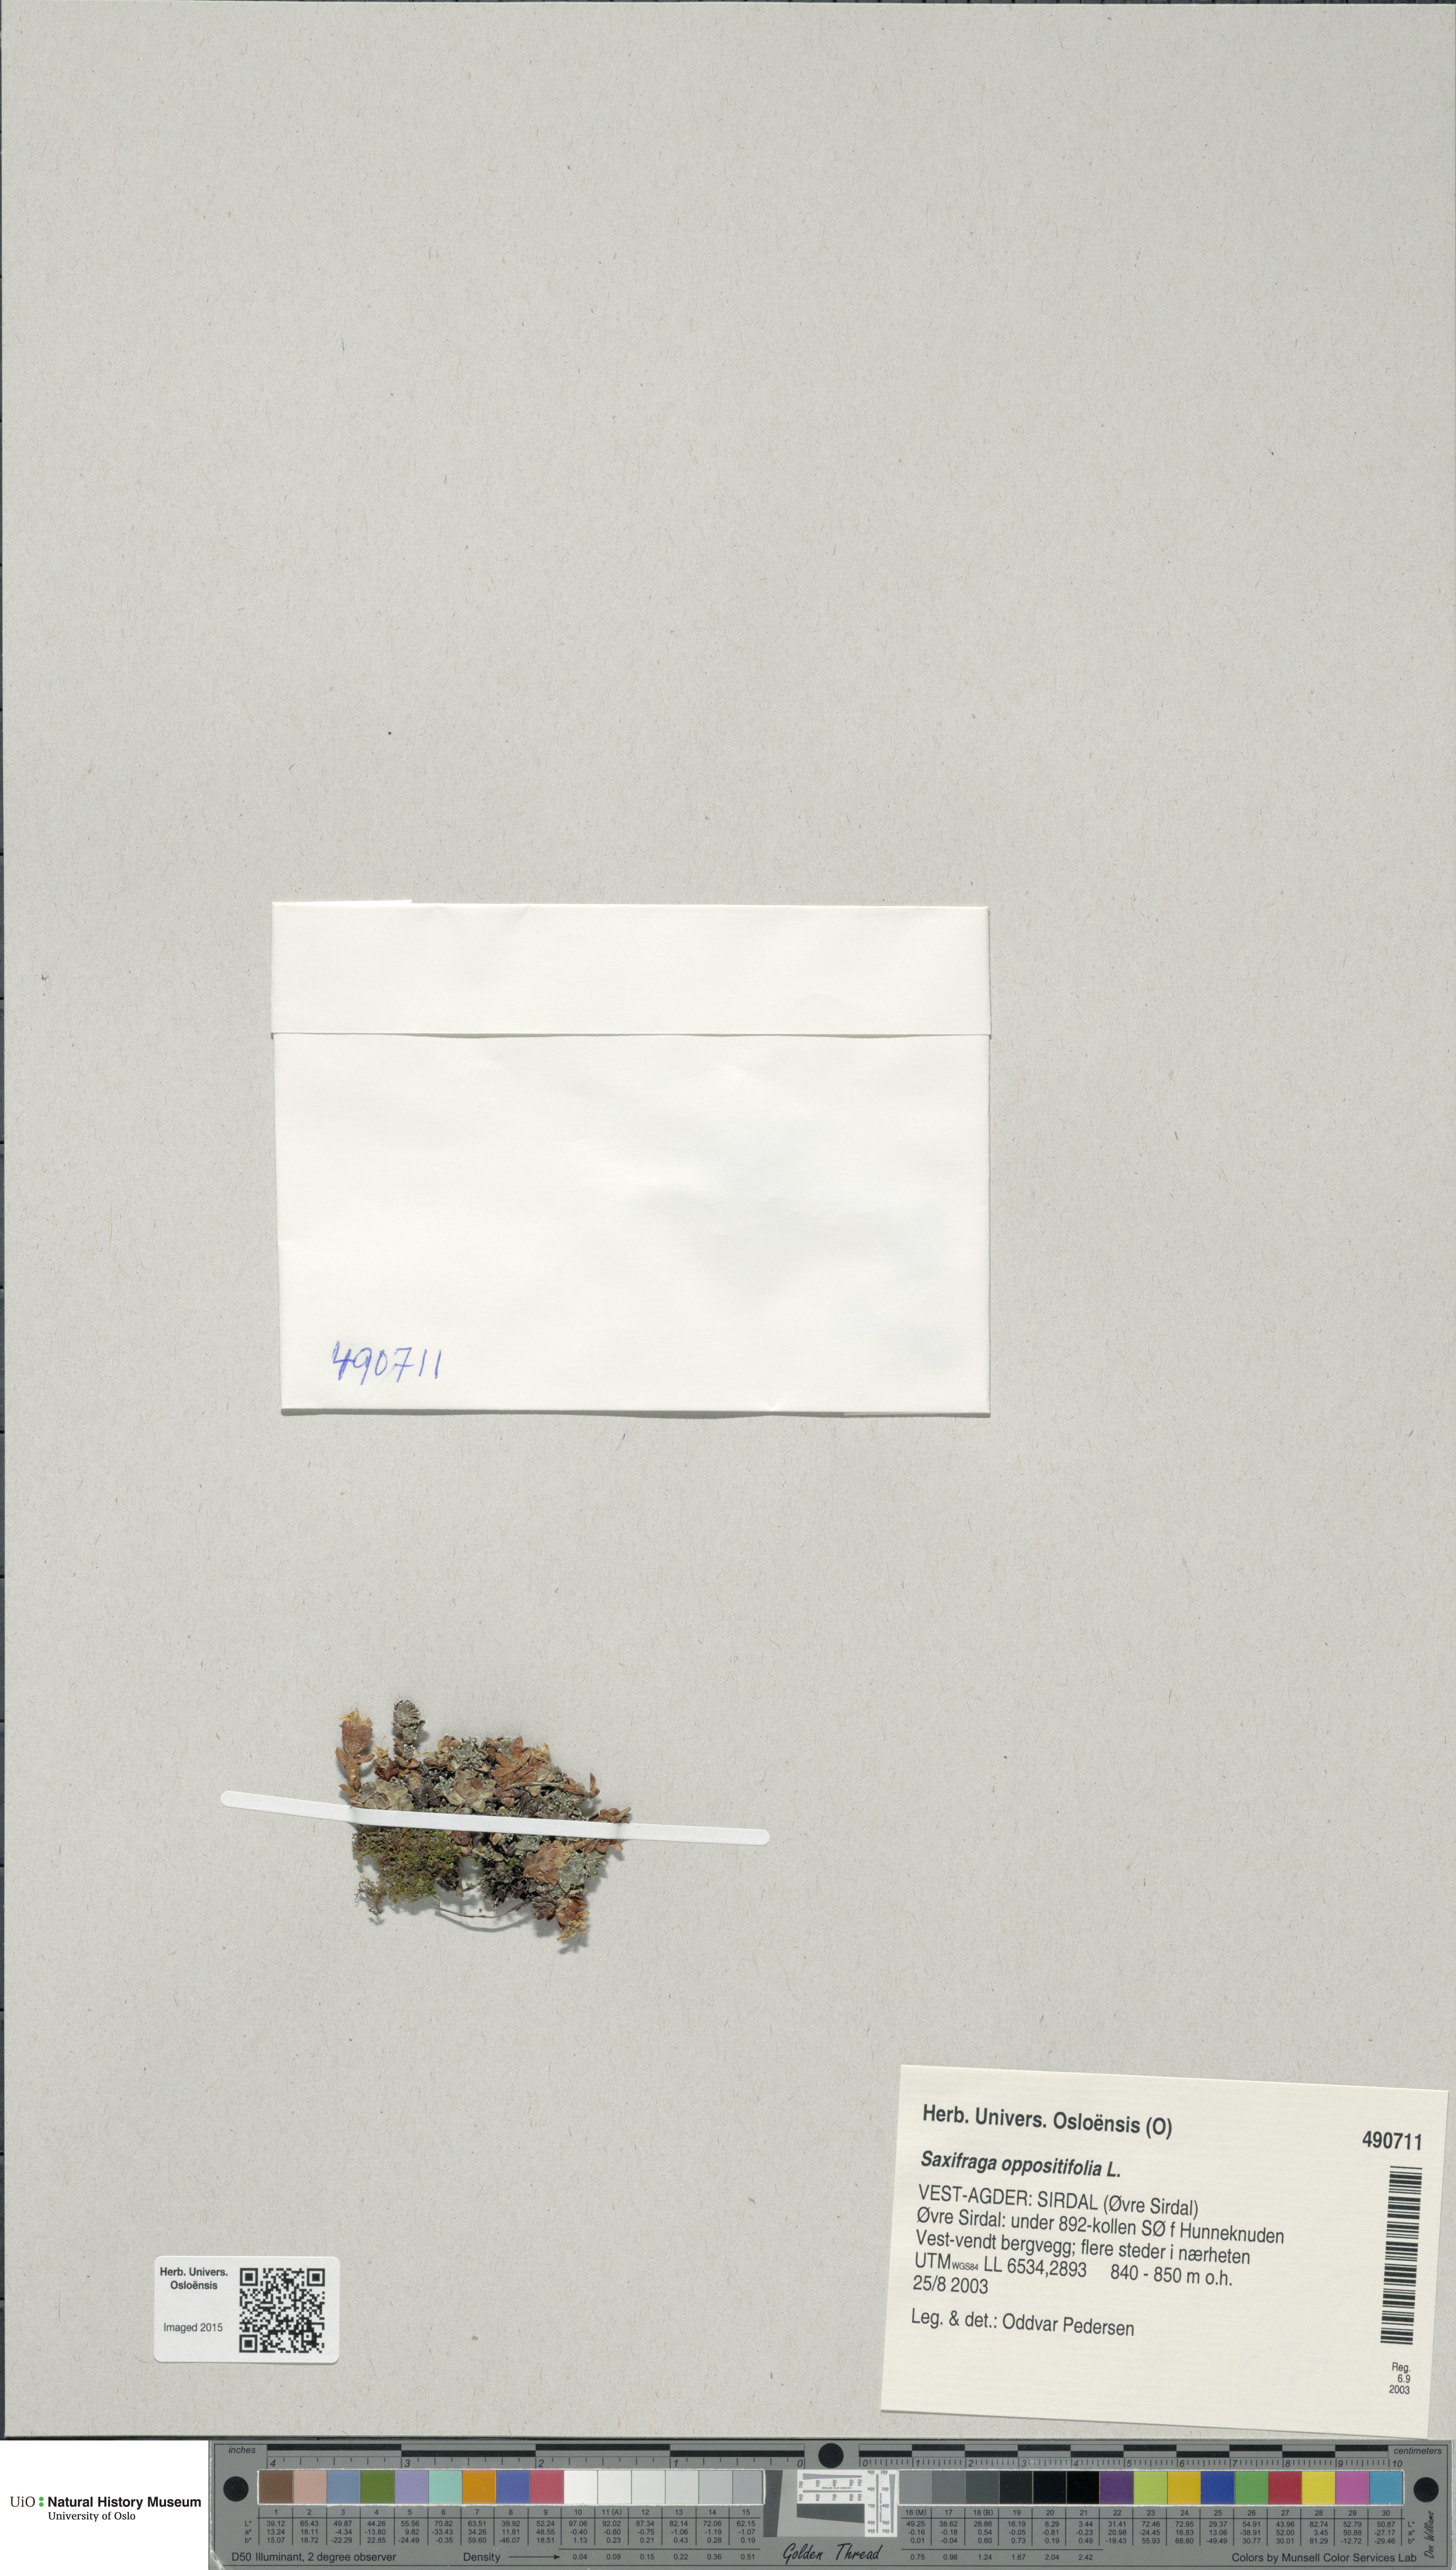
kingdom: Plantae
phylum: Tracheophyta
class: Magnoliopsida
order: Saxifragales
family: Saxifragaceae
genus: Saxifraga
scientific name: Saxifraga oppositifolia
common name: Purple saxifrage
